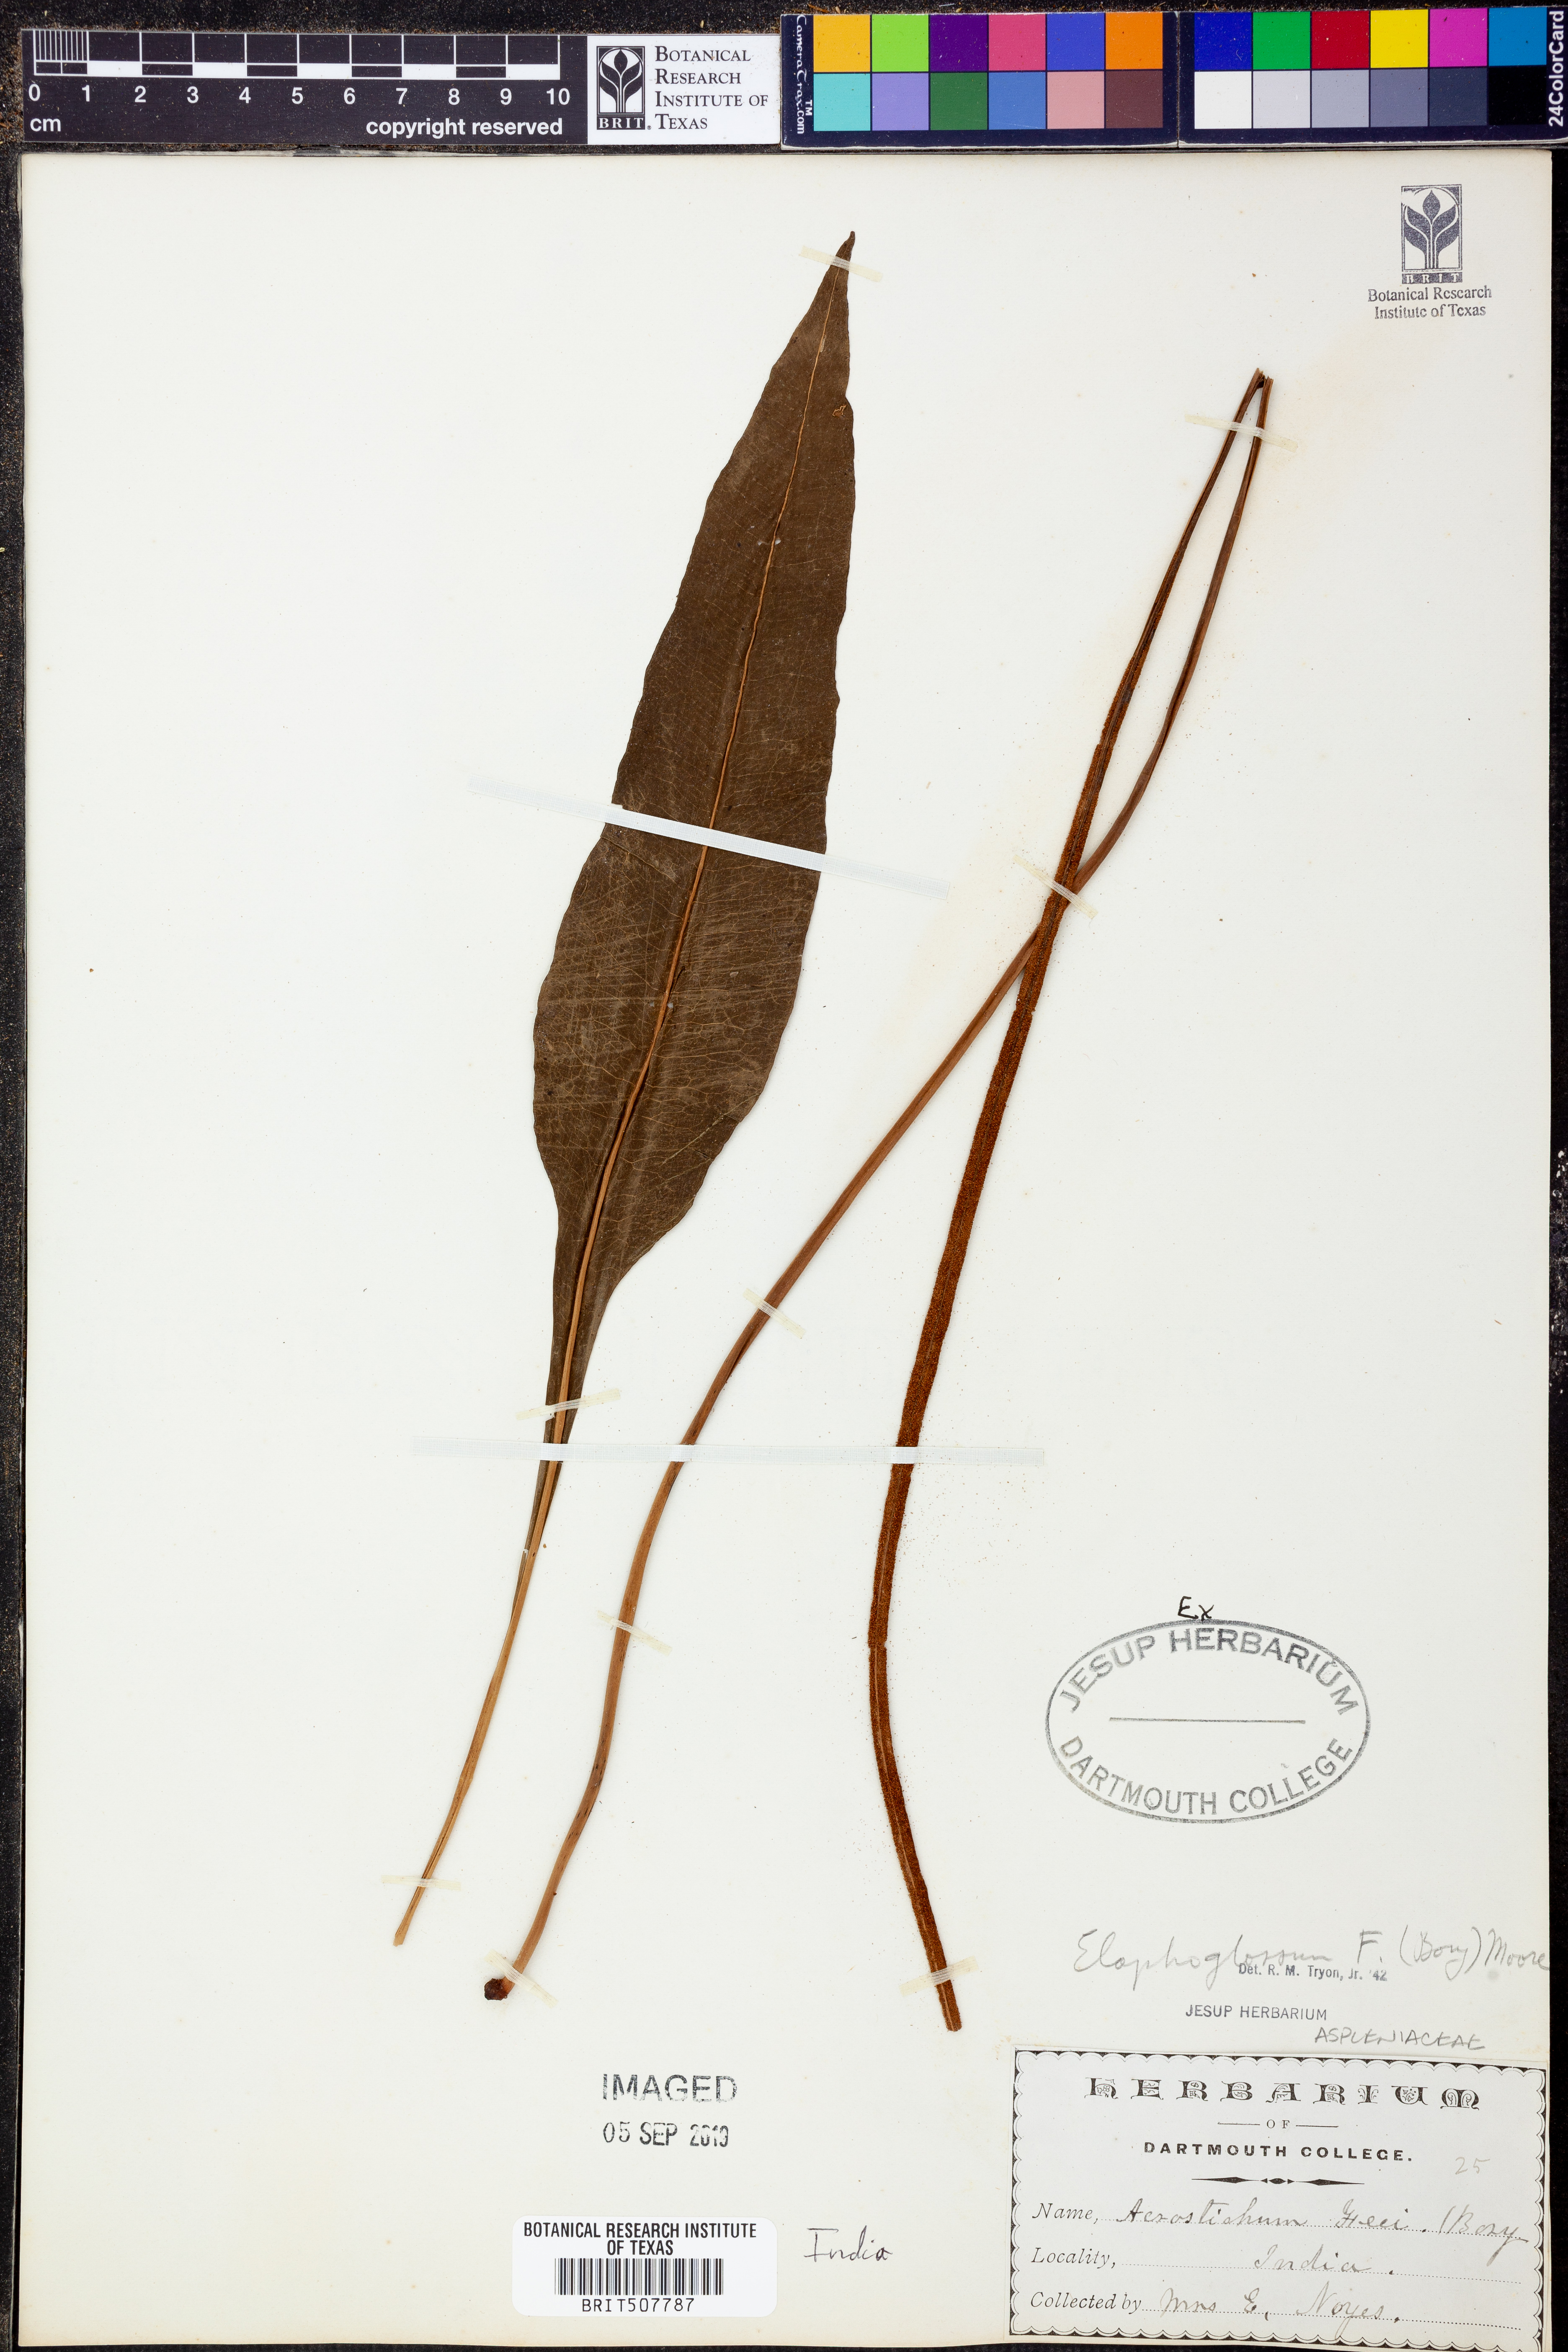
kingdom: Plantae
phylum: Tracheophyta
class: Polypodiopsida
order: Polypodiales
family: Dryopteridaceae
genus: Elaphoglossum
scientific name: Elaphoglossum feei
